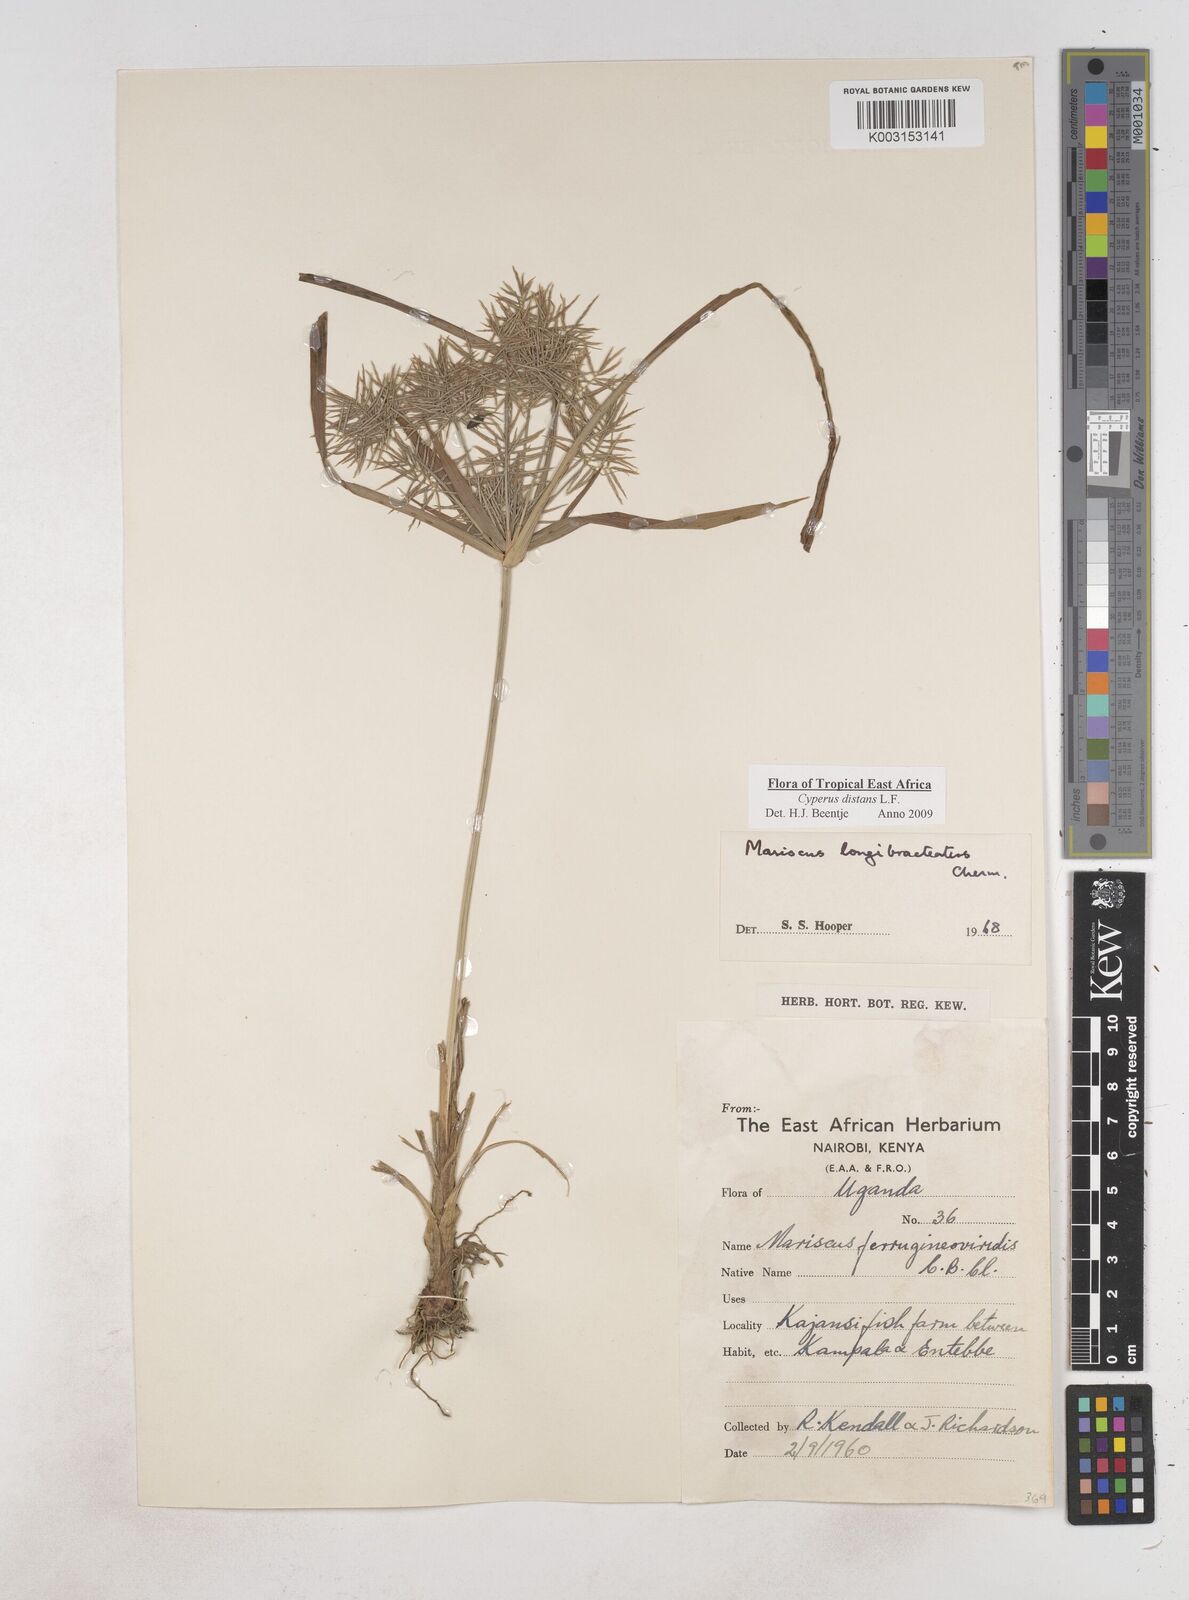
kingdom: Plantae
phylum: Tracheophyta
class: Liliopsida
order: Poales
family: Cyperaceae
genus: Cyperus
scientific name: Cyperus distans
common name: Slender cyperus
